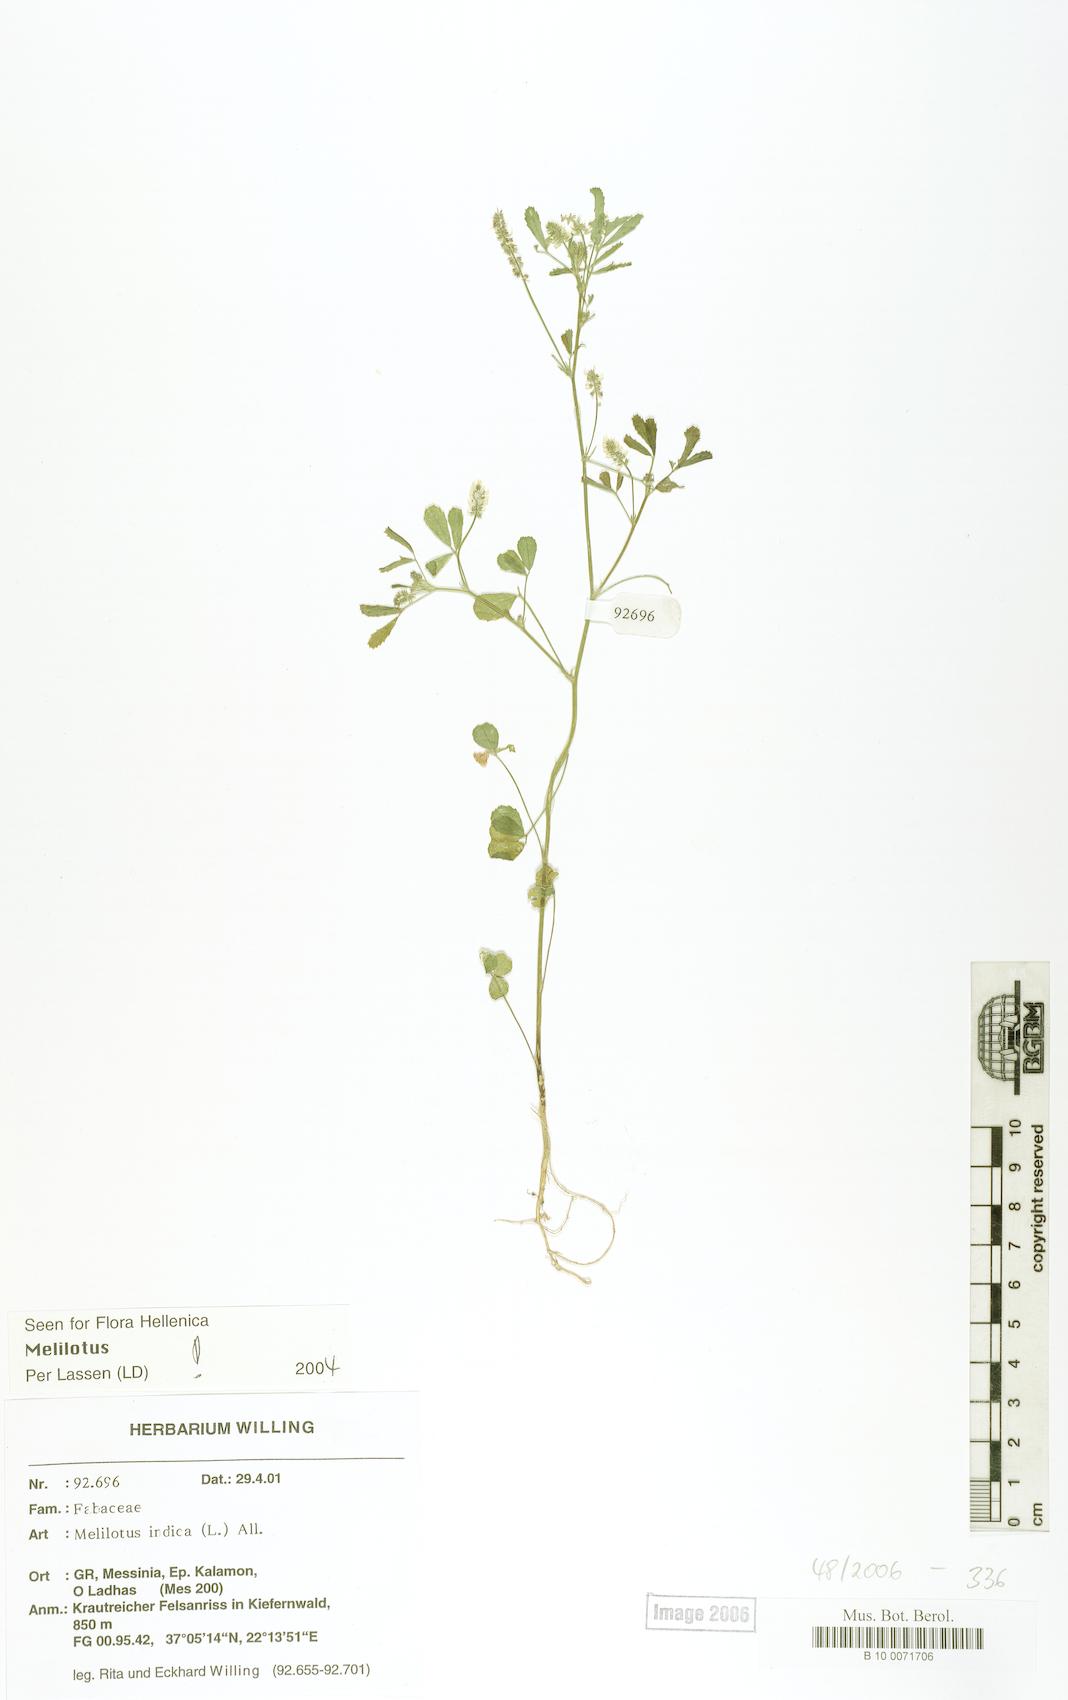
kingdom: Plantae
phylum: Tracheophyta
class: Magnoliopsida
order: Fabales
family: Fabaceae
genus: Melilotus
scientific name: Melilotus indicus
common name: Small melilot
